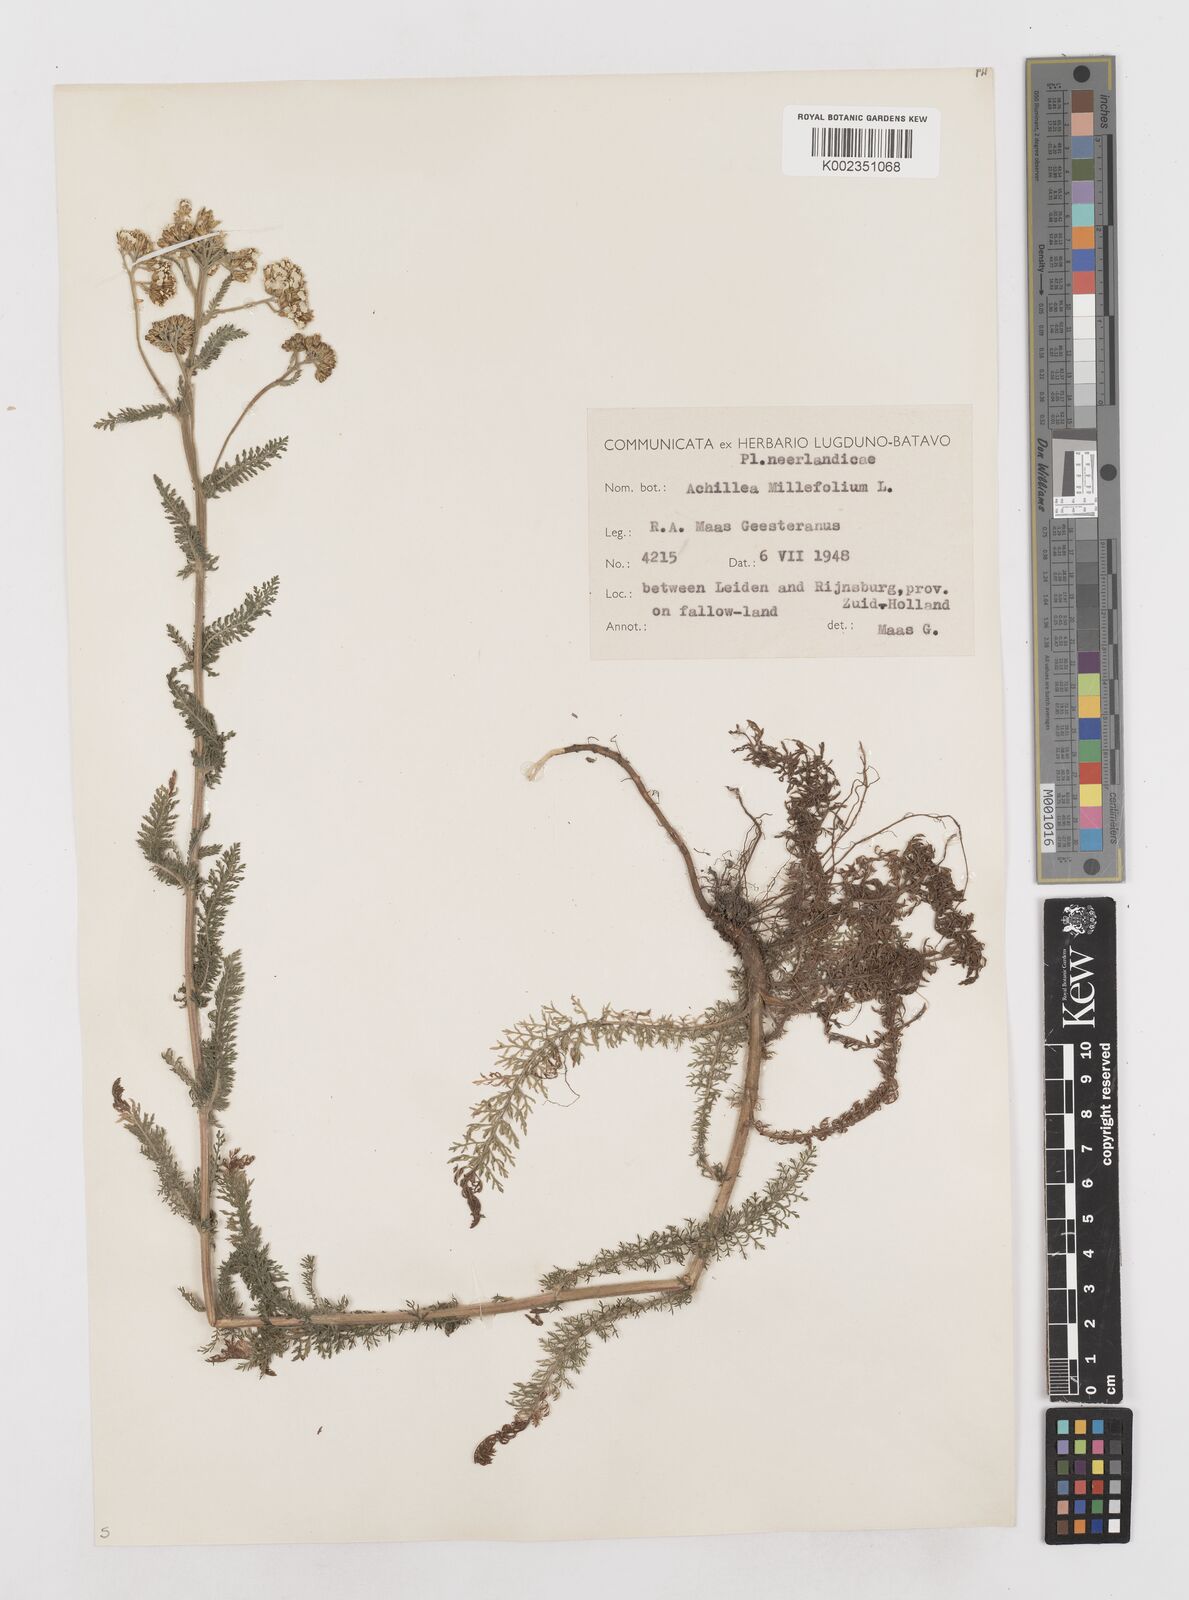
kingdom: Plantae
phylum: Tracheophyta
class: Magnoliopsida
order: Asterales
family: Asteraceae
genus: Achillea
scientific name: Achillea millefolium
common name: Yarrow
